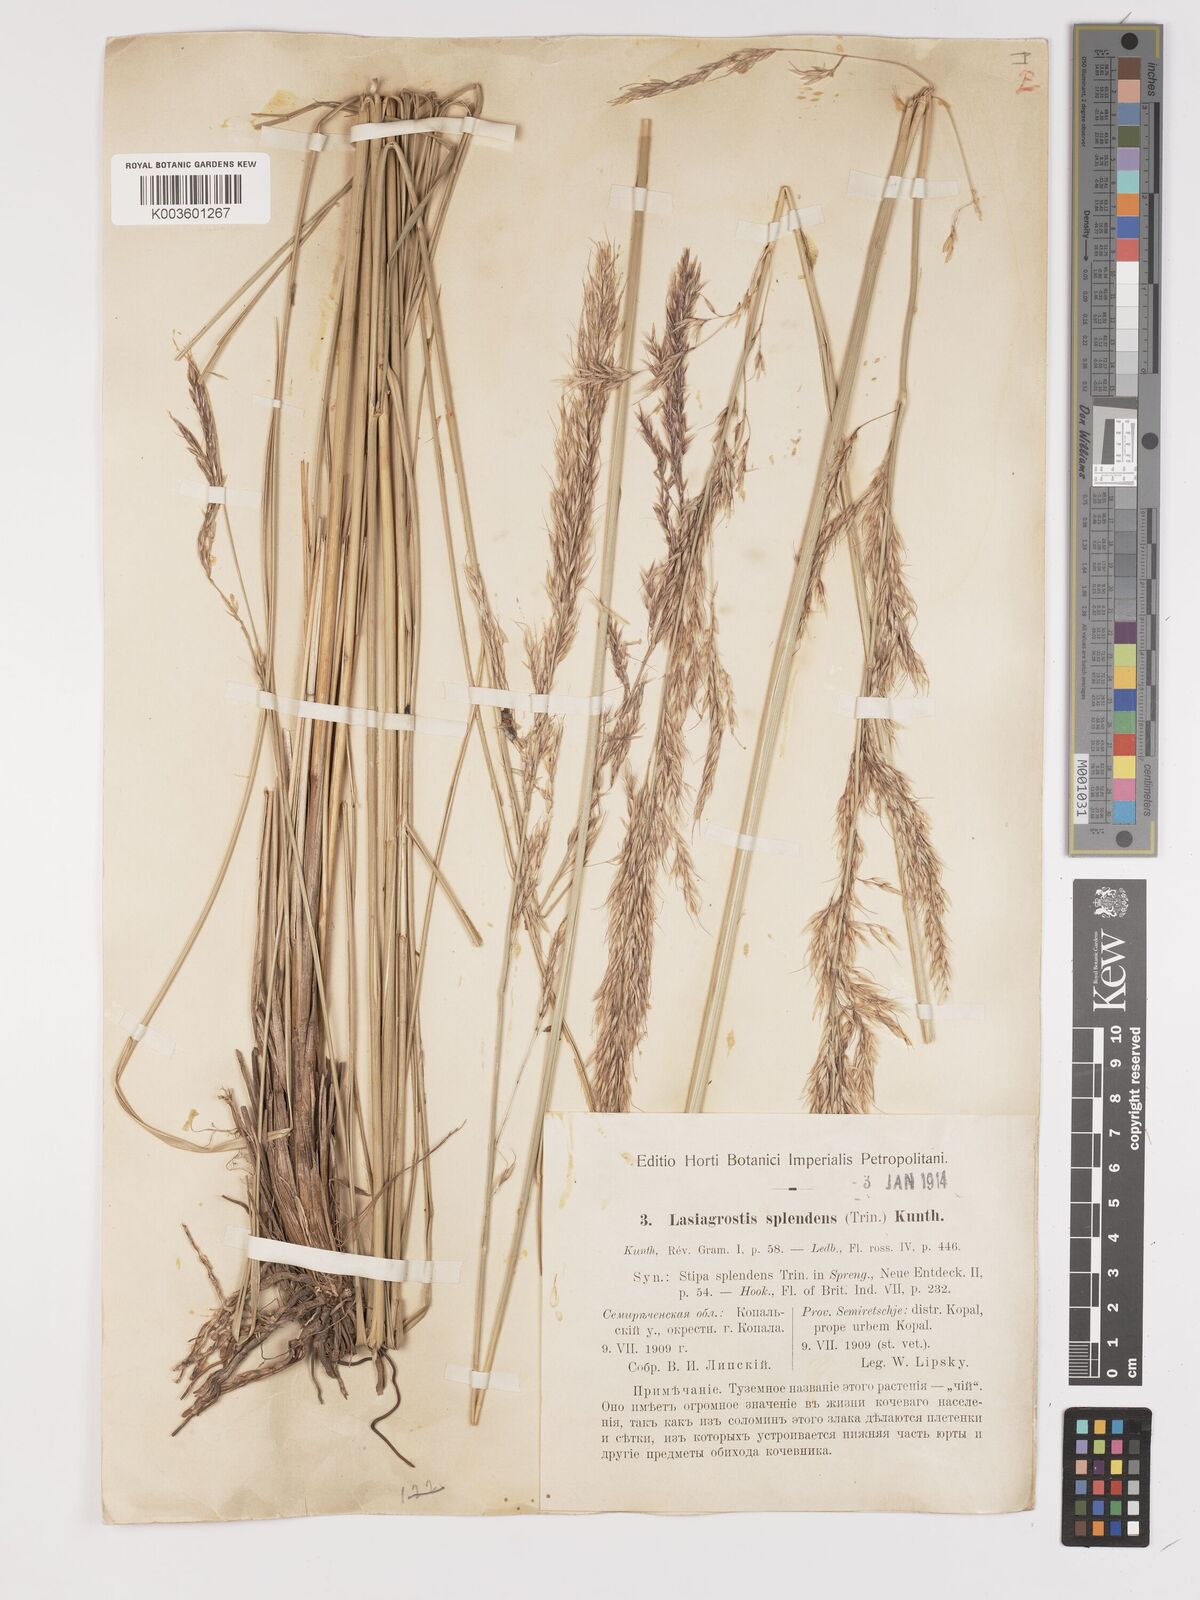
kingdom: Plantae
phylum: Tracheophyta
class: Liliopsida
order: Poales
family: Poaceae
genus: Neotrinia
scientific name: Neotrinia splendens
